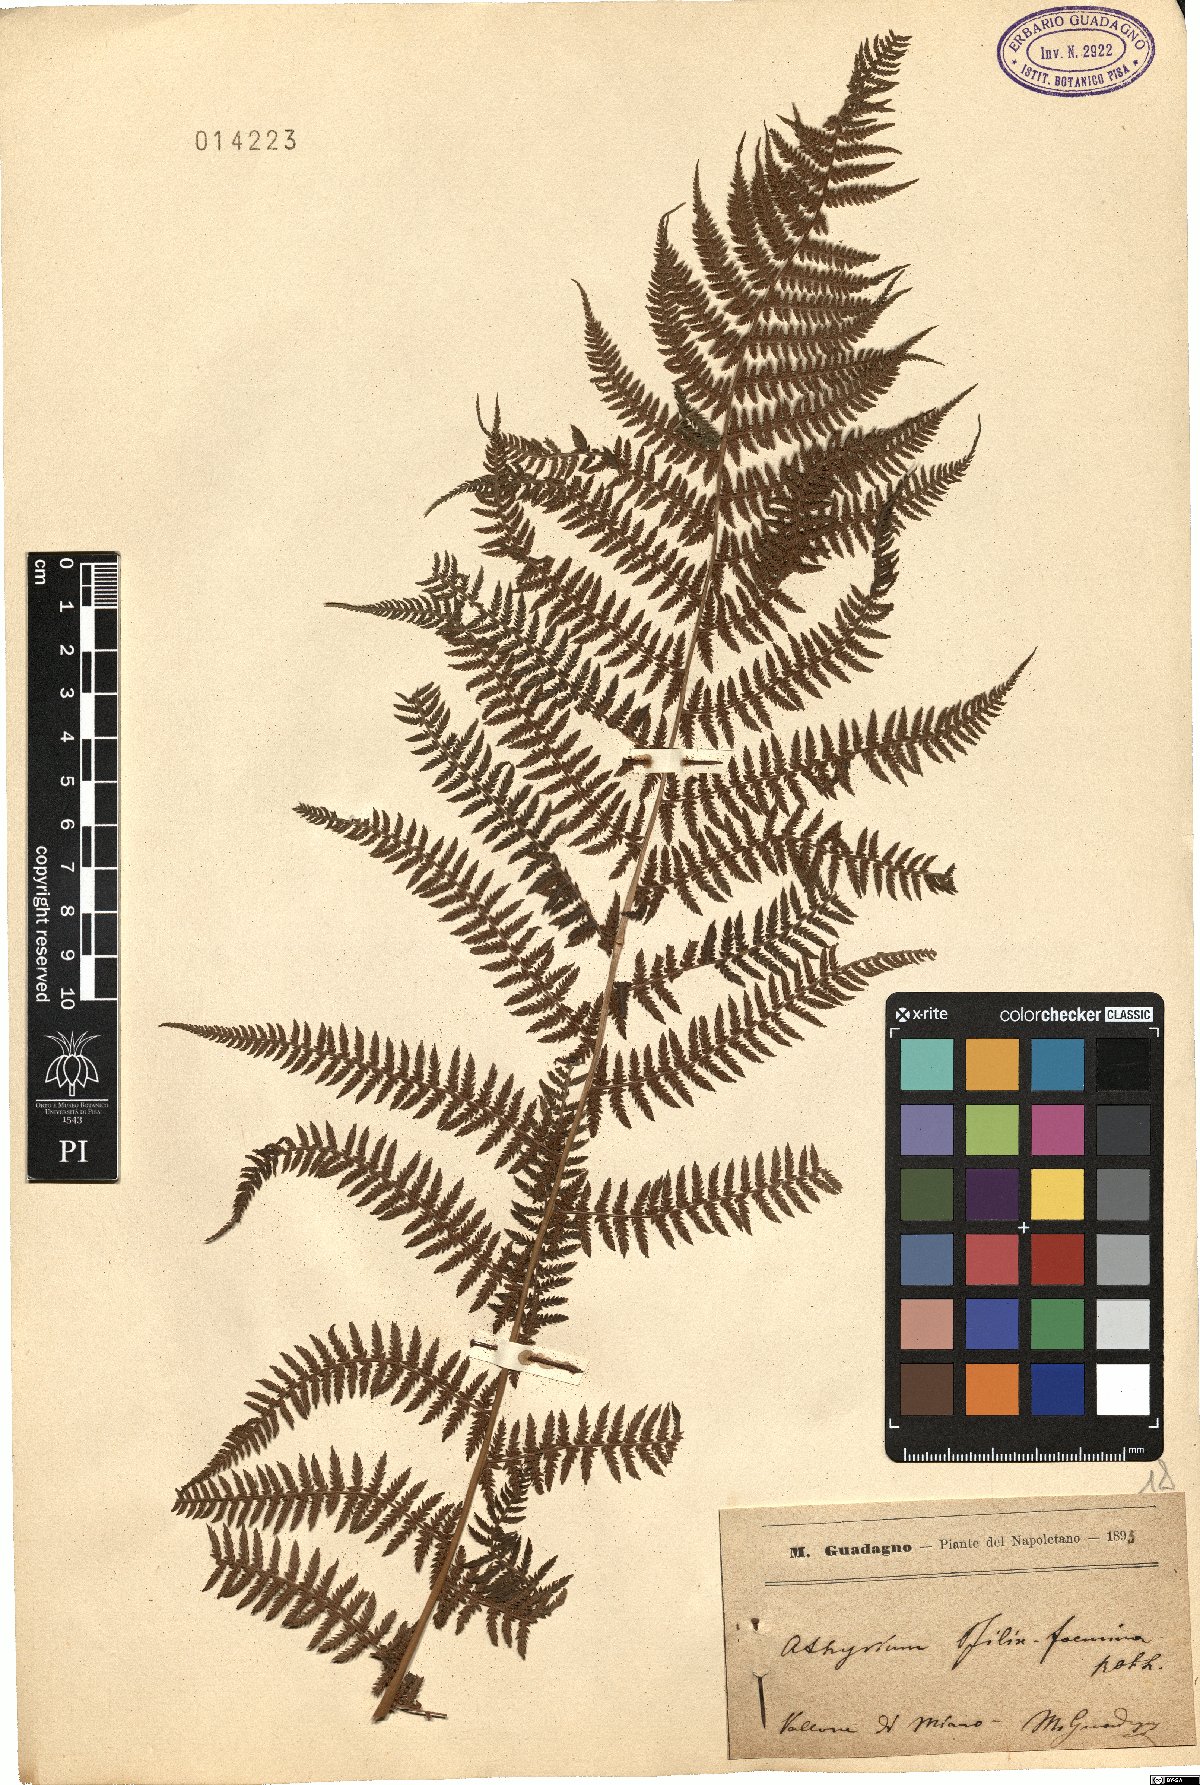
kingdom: Plantae
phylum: Tracheophyta
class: Polypodiopsida
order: Polypodiales
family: Athyriaceae
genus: Athyrium
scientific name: Athyrium filix-femina
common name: Lady fern
